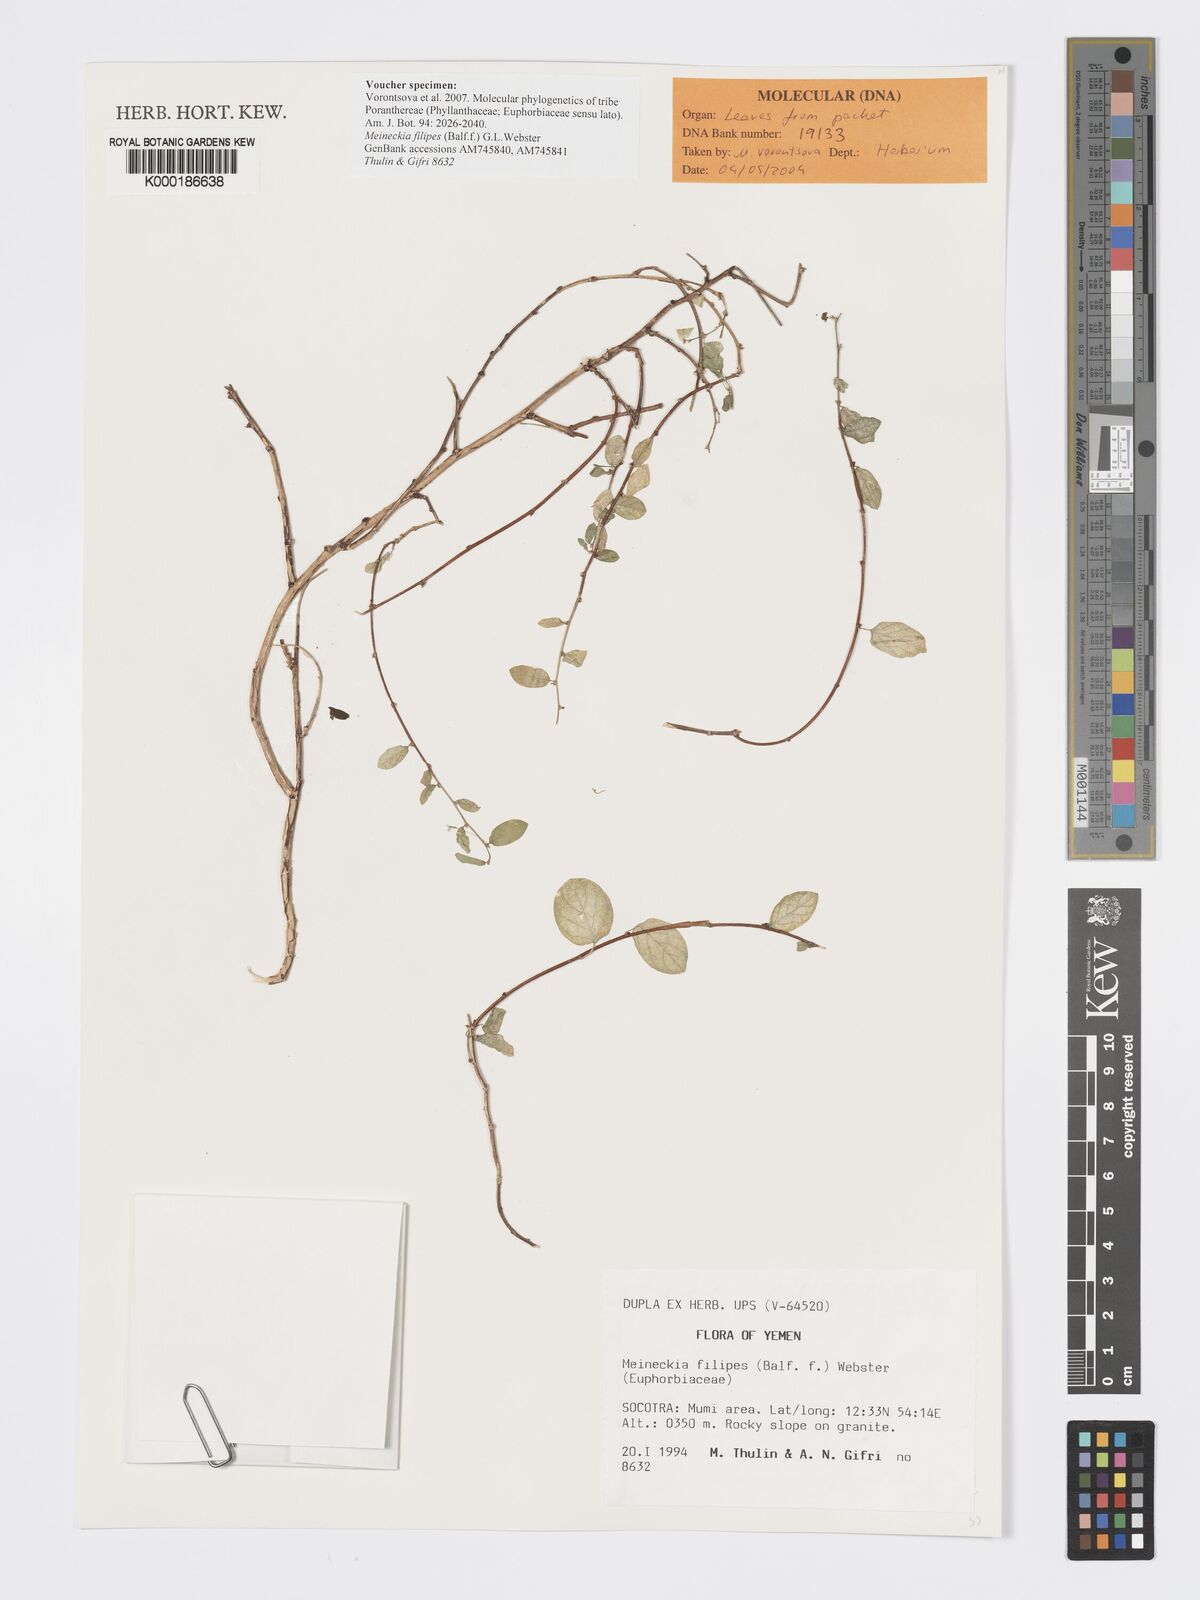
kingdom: Plantae
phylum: Tracheophyta
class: Magnoliopsida
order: Malpighiales
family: Phyllanthaceae
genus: Meineckia
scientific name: Meineckia filipes
